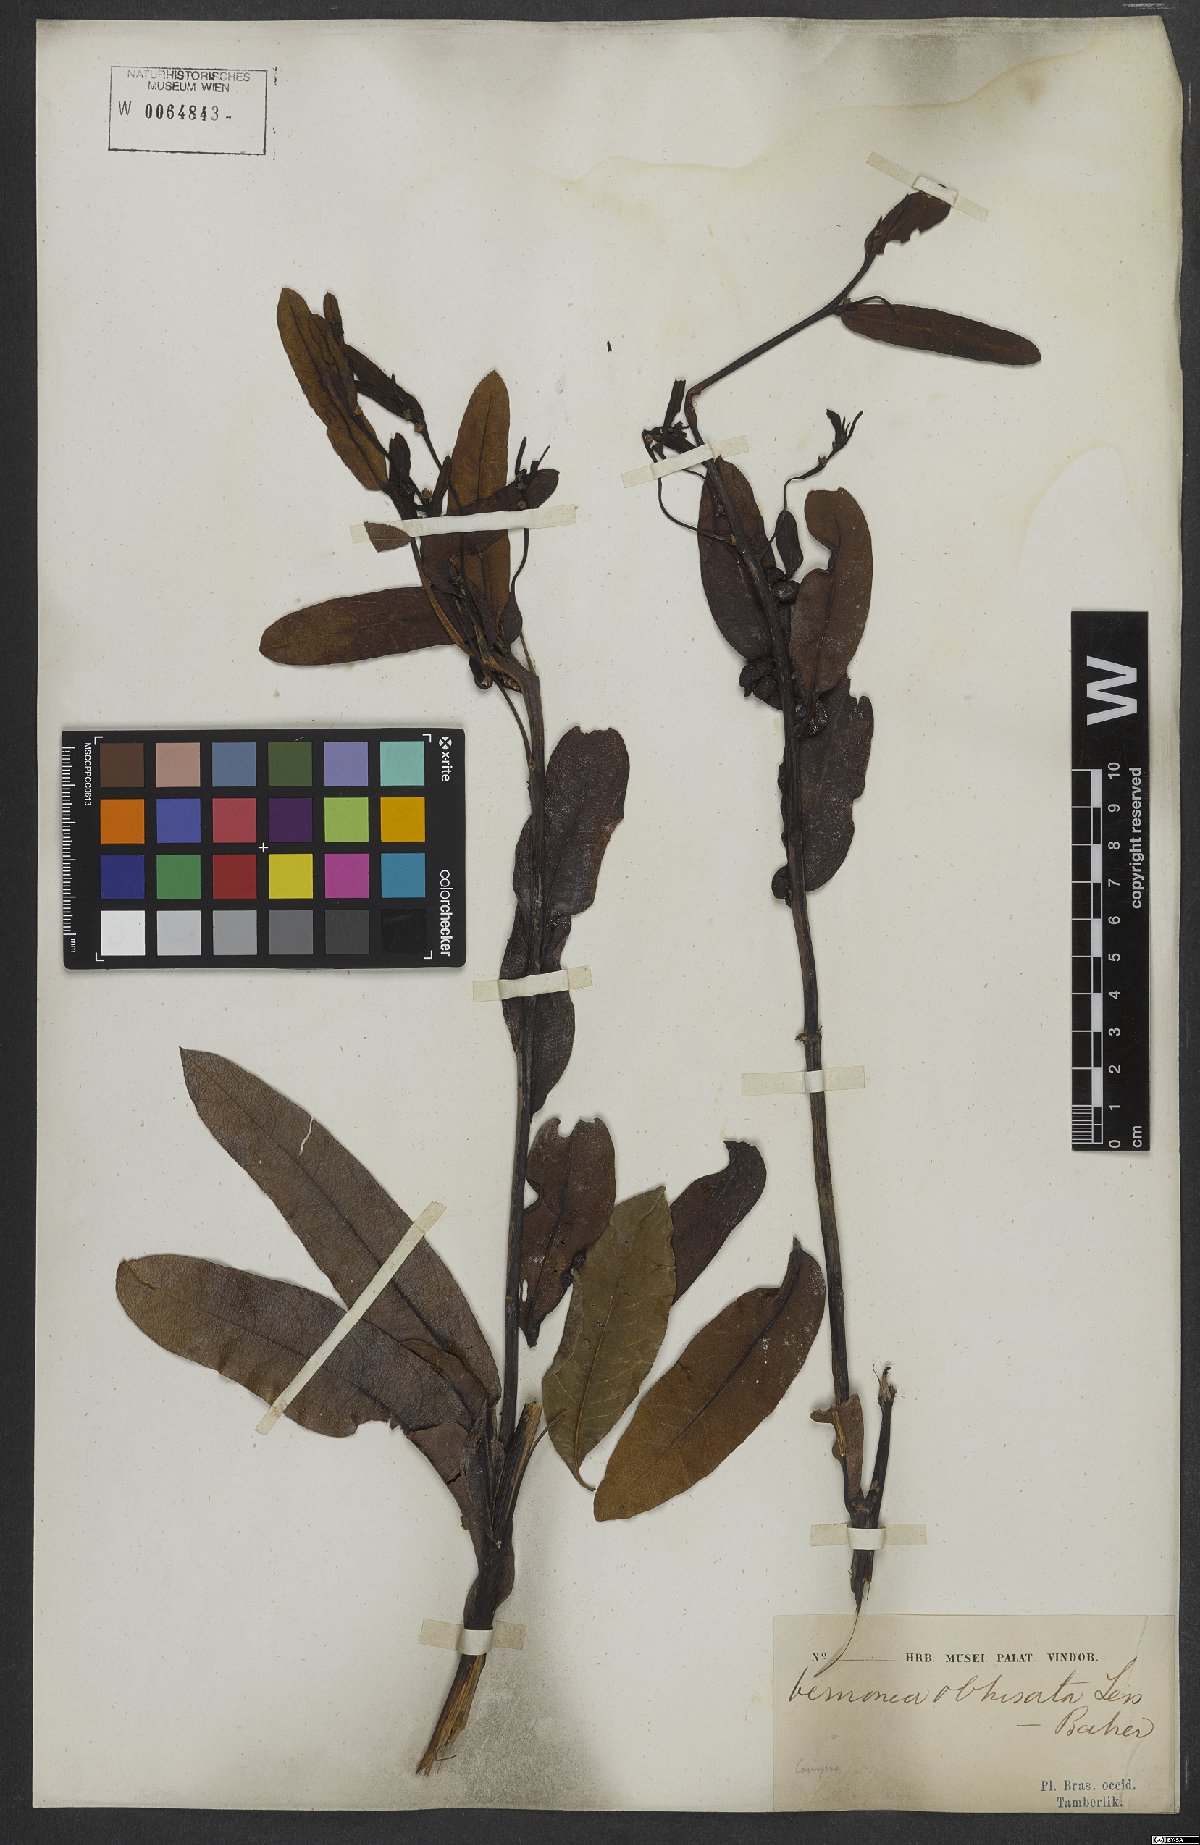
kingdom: Plantae
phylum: Tracheophyta
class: Magnoliopsida
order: Asterales
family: Asteraceae
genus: Lessingianthus
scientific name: Lessingianthus obtusatus
